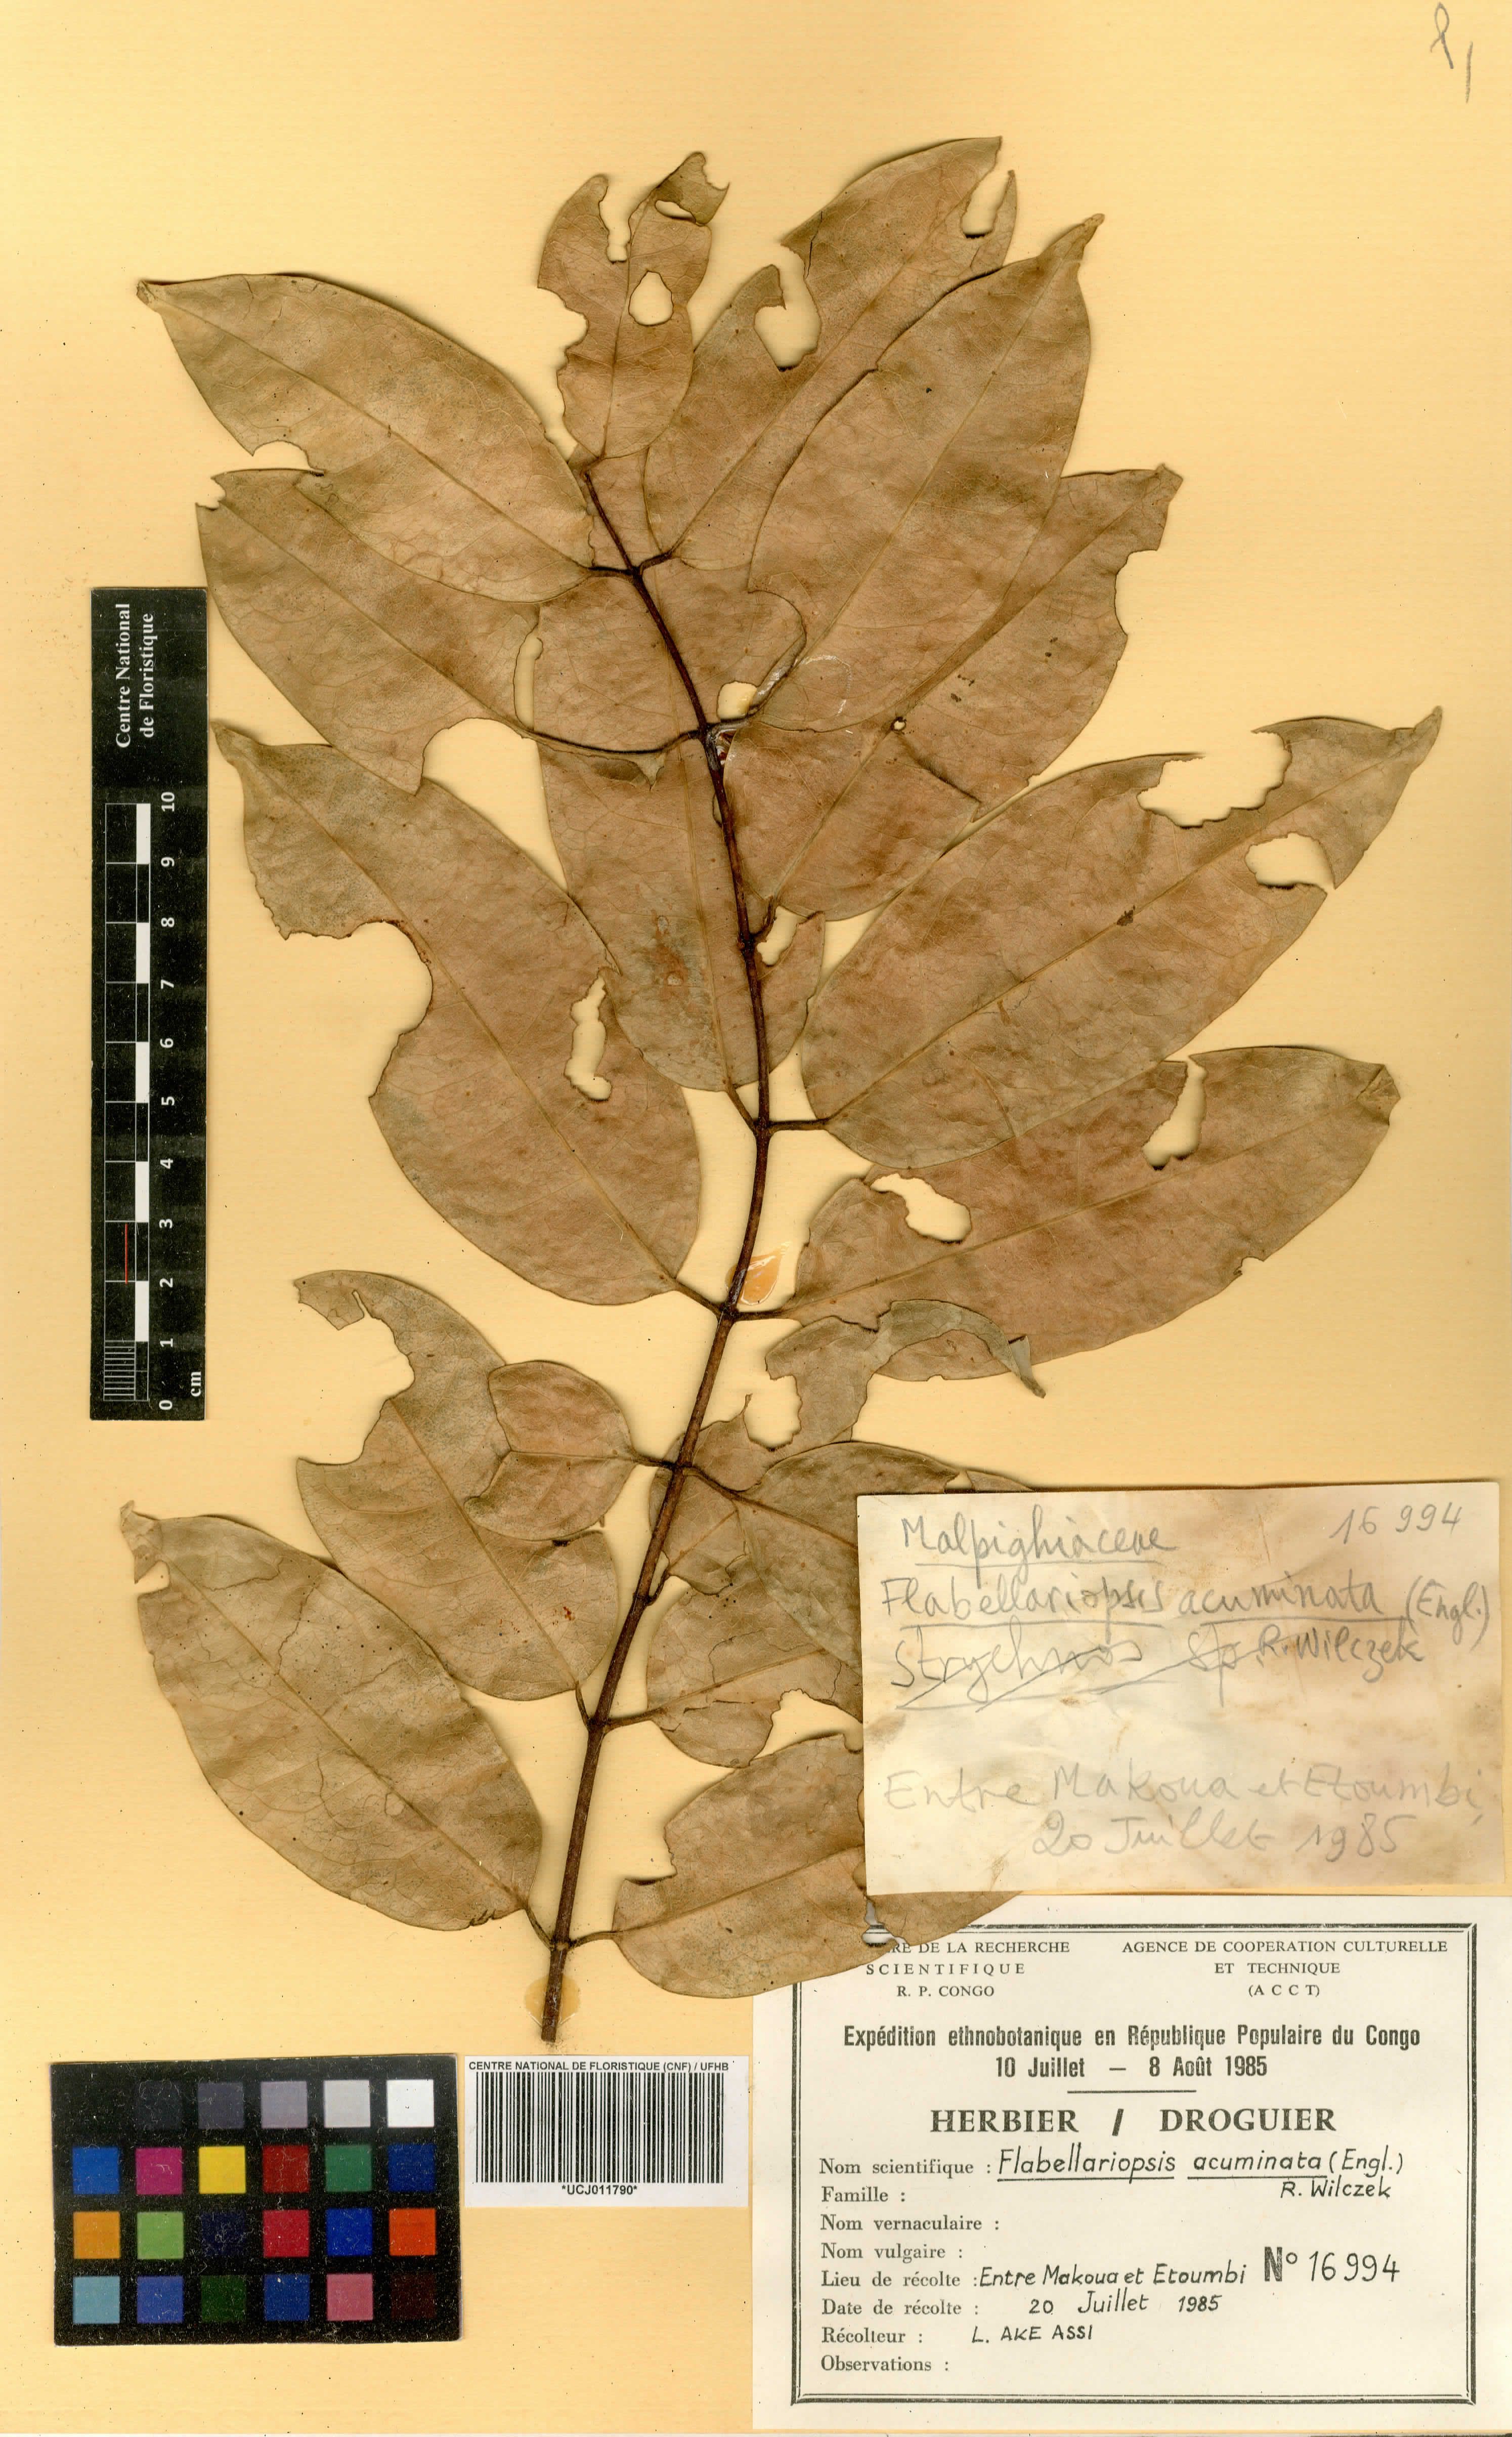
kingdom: Plantae
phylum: Tracheophyta
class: Magnoliopsida
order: Malpighiales
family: Malpighiaceae
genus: Flabellariopsis
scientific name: Flabellariopsis acuminata
